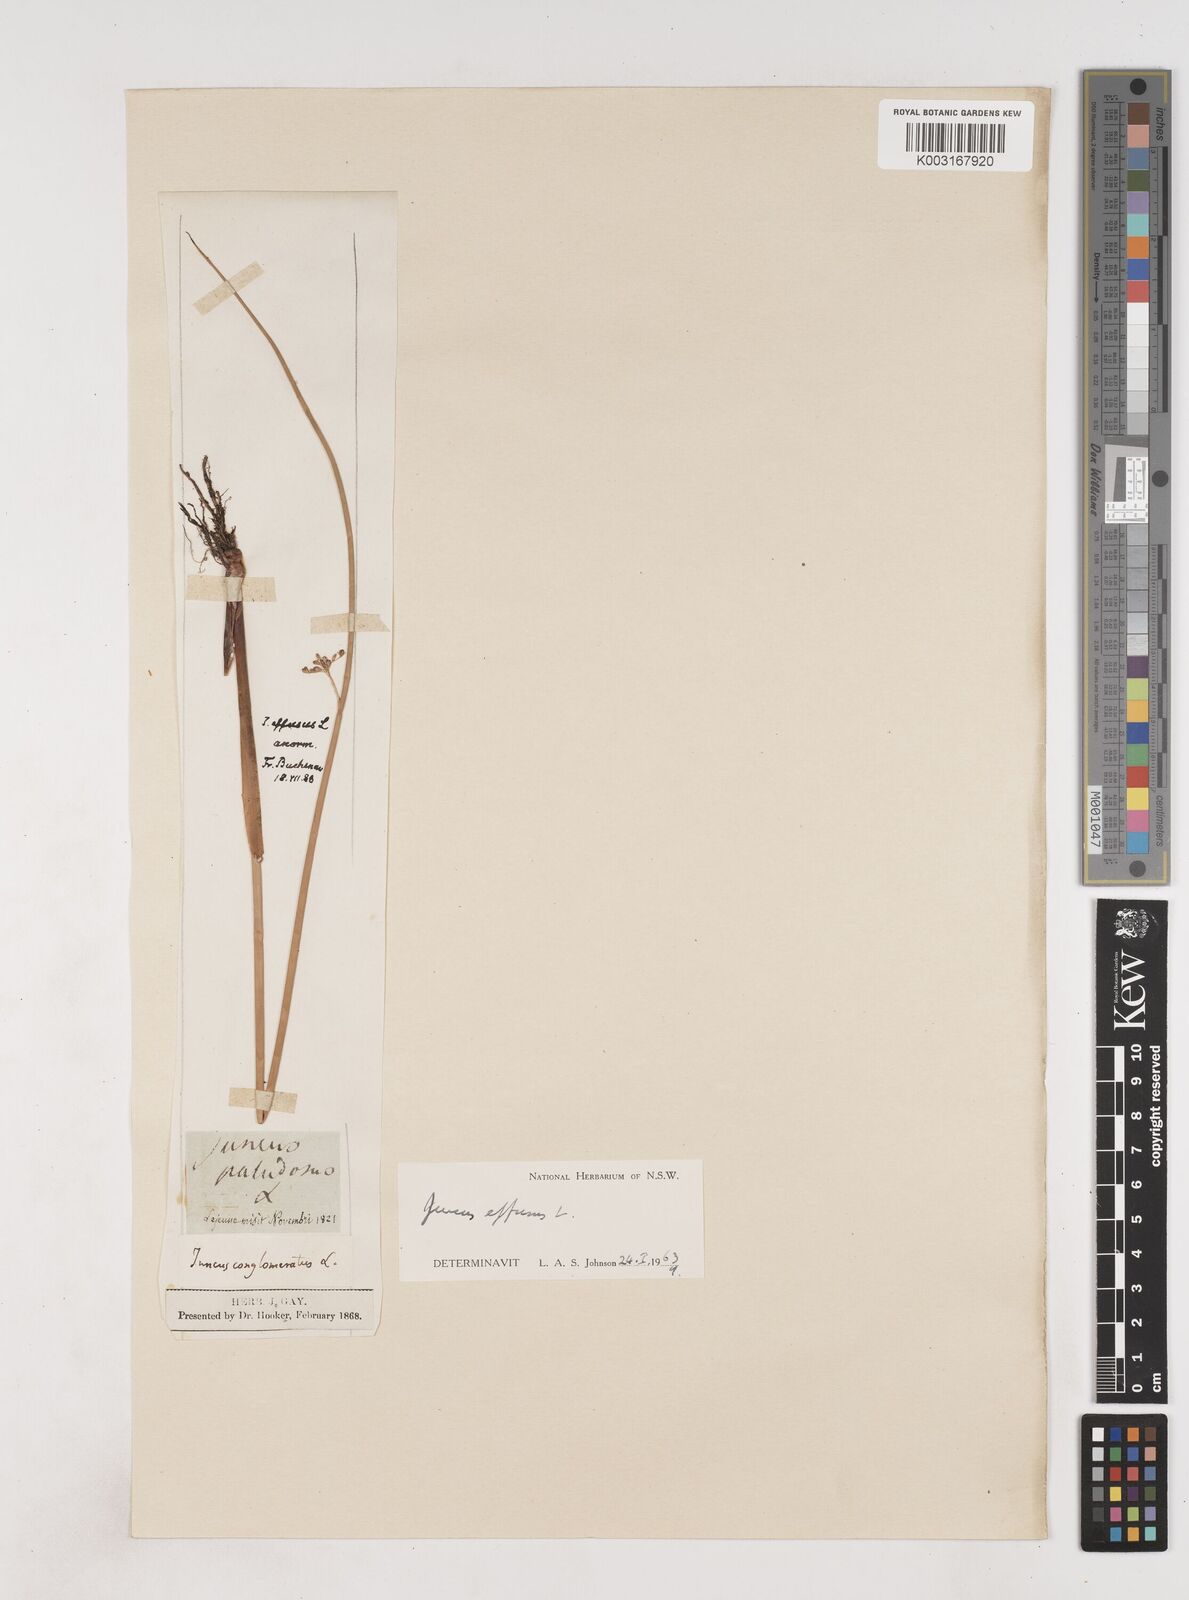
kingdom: Plantae
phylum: Tracheophyta
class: Liliopsida
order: Poales
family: Juncaceae
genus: Juncus
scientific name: Juncus effusus
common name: Soft rush
